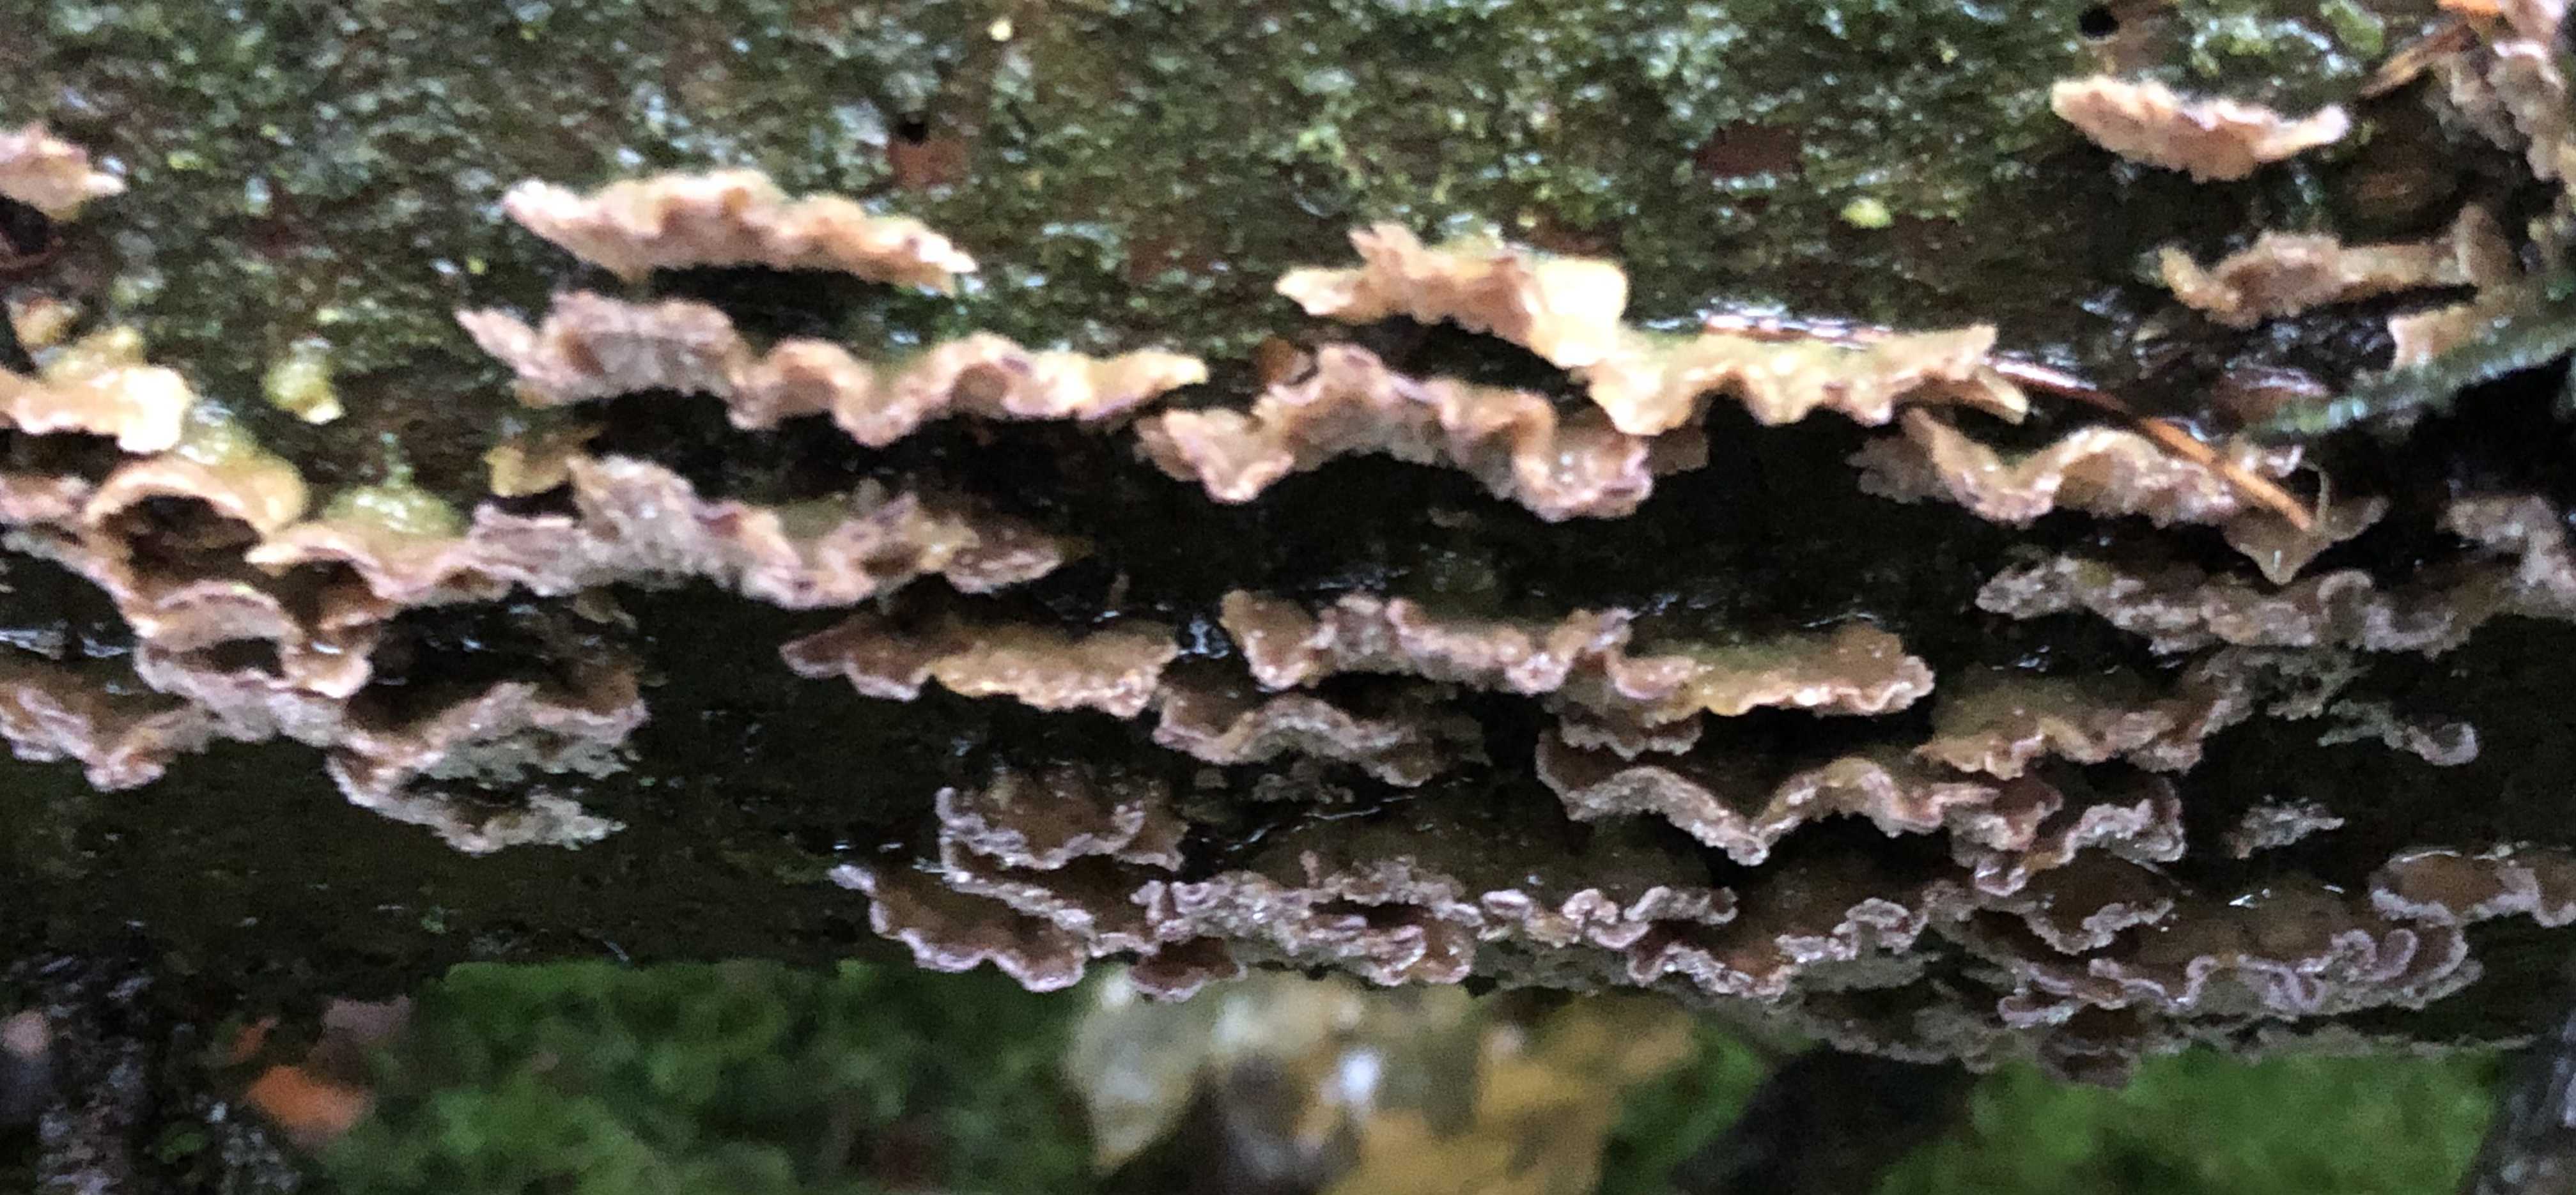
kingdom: Fungi
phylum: Basidiomycota
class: Agaricomycetes
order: Polyporales
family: Polyporaceae
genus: Trichaptum
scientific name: Trichaptum
